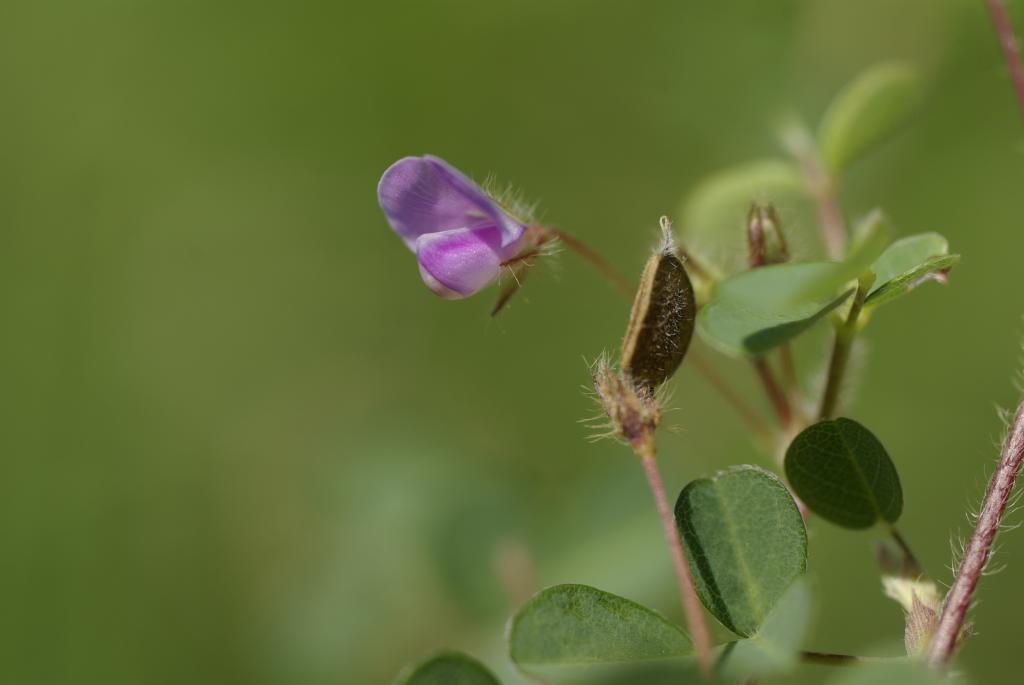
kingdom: Plantae
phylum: Tracheophyta
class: Magnoliopsida
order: Fabales
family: Fabaceae
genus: Grona
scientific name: Grona heterophylla
